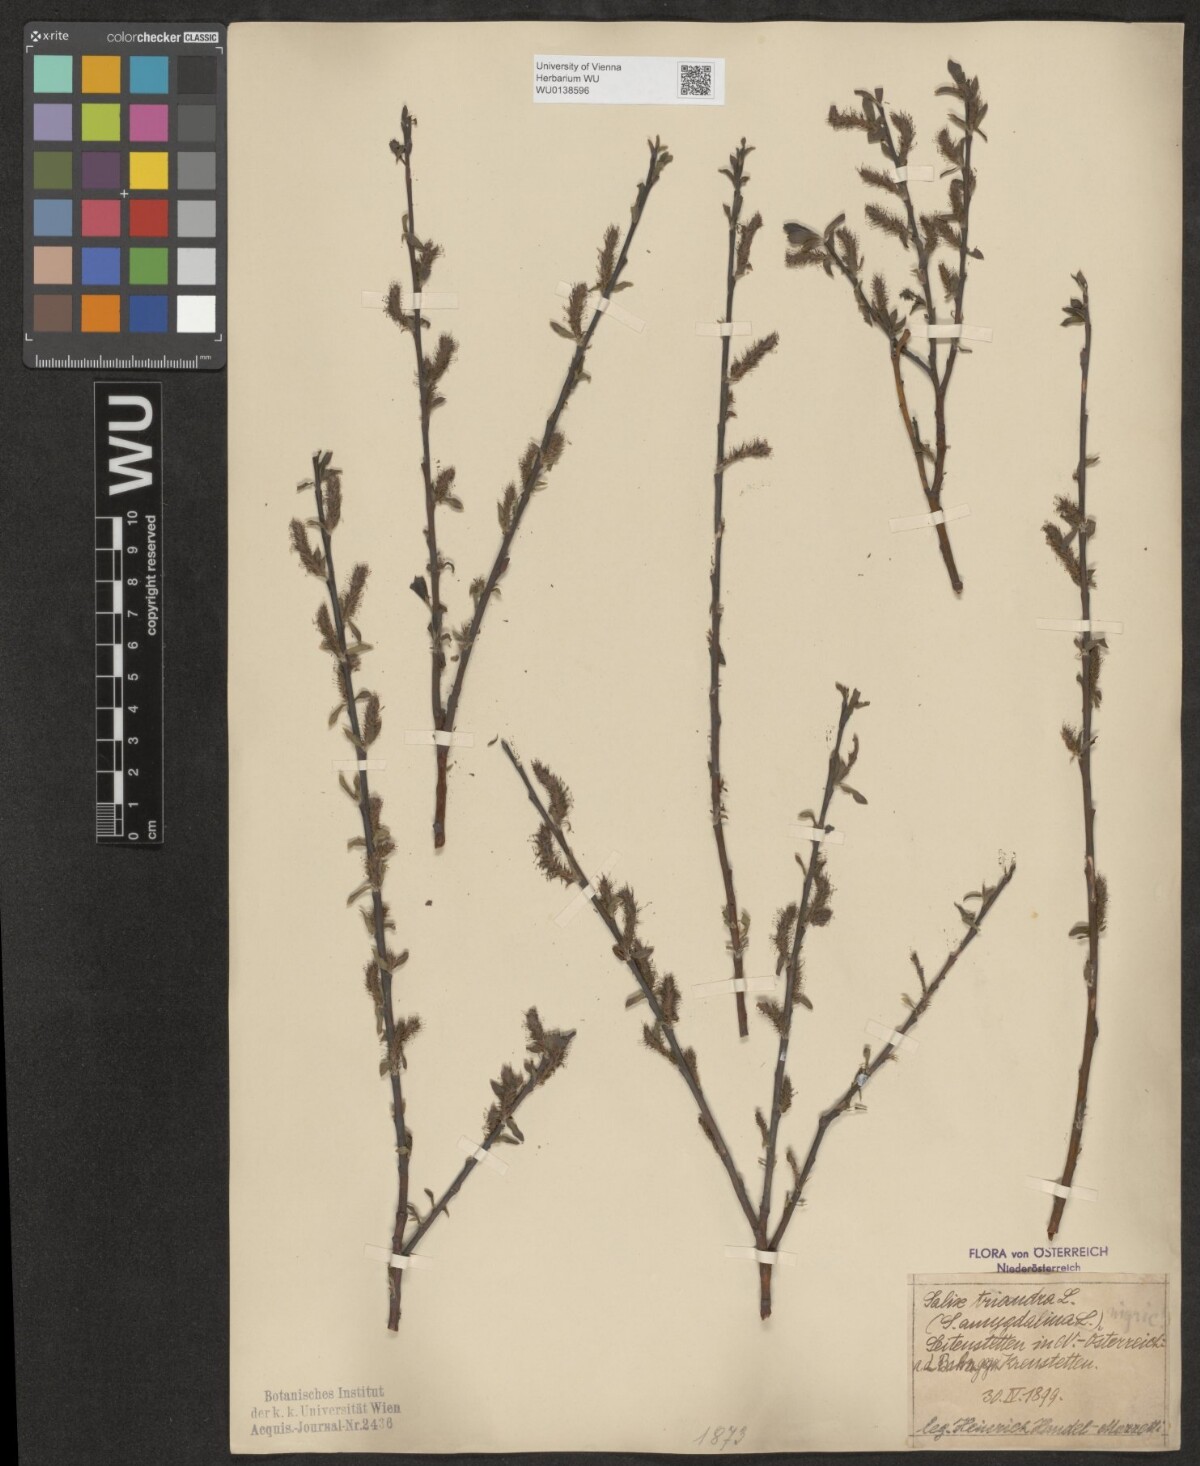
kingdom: Plantae
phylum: Tracheophyta
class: Magnoliopsida
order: Malpighiales
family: Salicaceae
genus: Salix
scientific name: Salix myrsinifolia
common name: Dark-leaved willow
